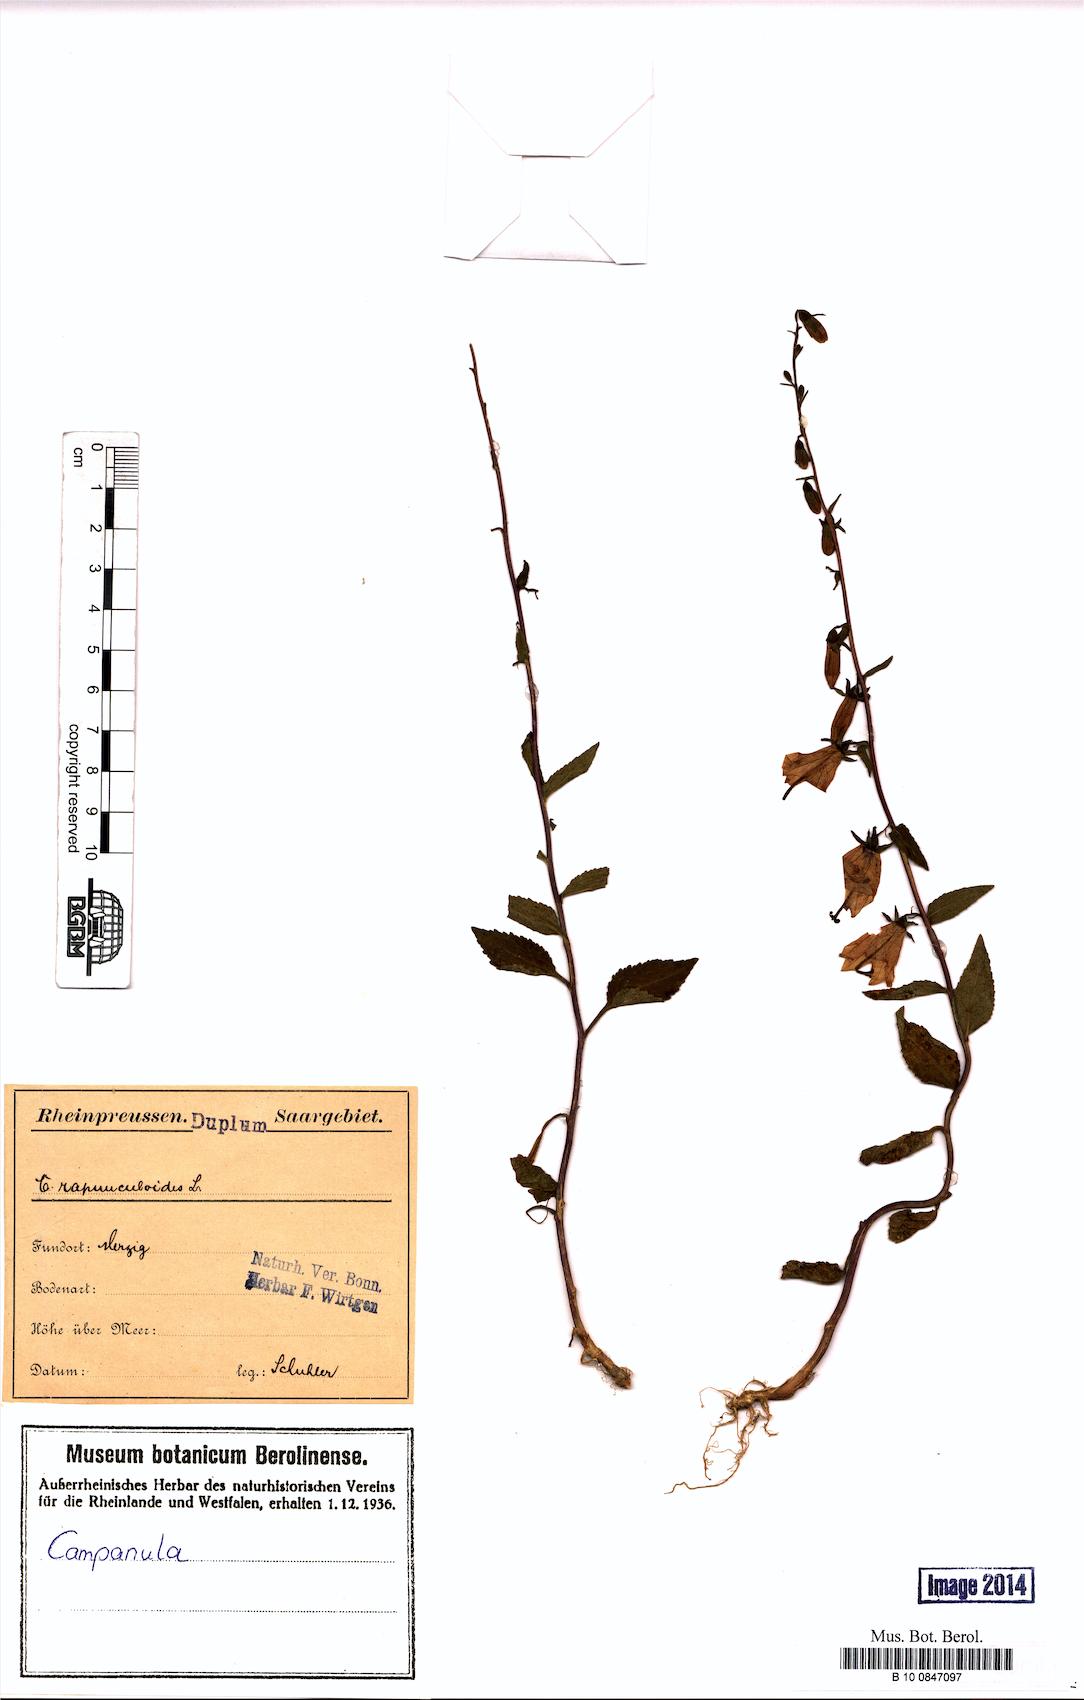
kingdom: Plantae
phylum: Tracheophyta
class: Magnoliopsida
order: Asterales
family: Campanulaceae
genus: Campanula
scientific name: Campanula rapunculoides
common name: Creeping bellflower
